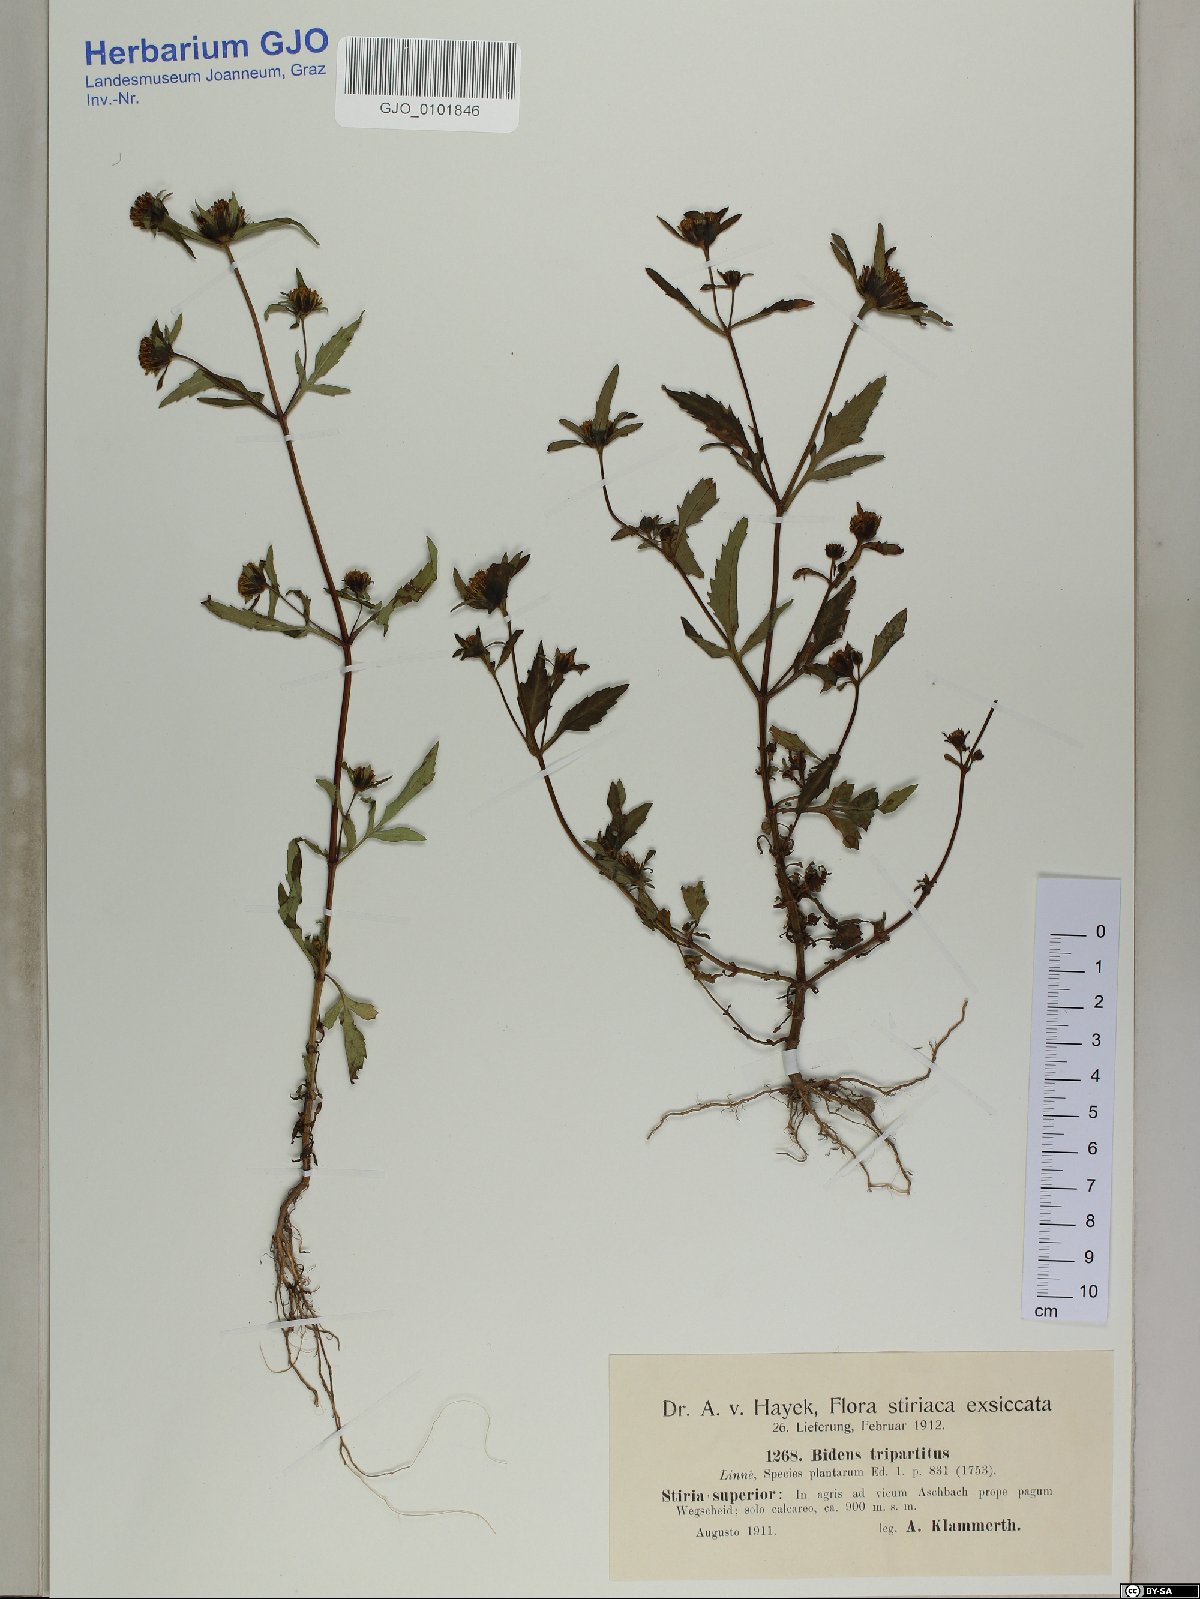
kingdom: Plantae
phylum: Tracheophyta
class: Magnoliopsida
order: Asterales
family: Asteraceae
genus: Bidens
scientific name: Bidens tripartita
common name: Trifid bur-marigold
